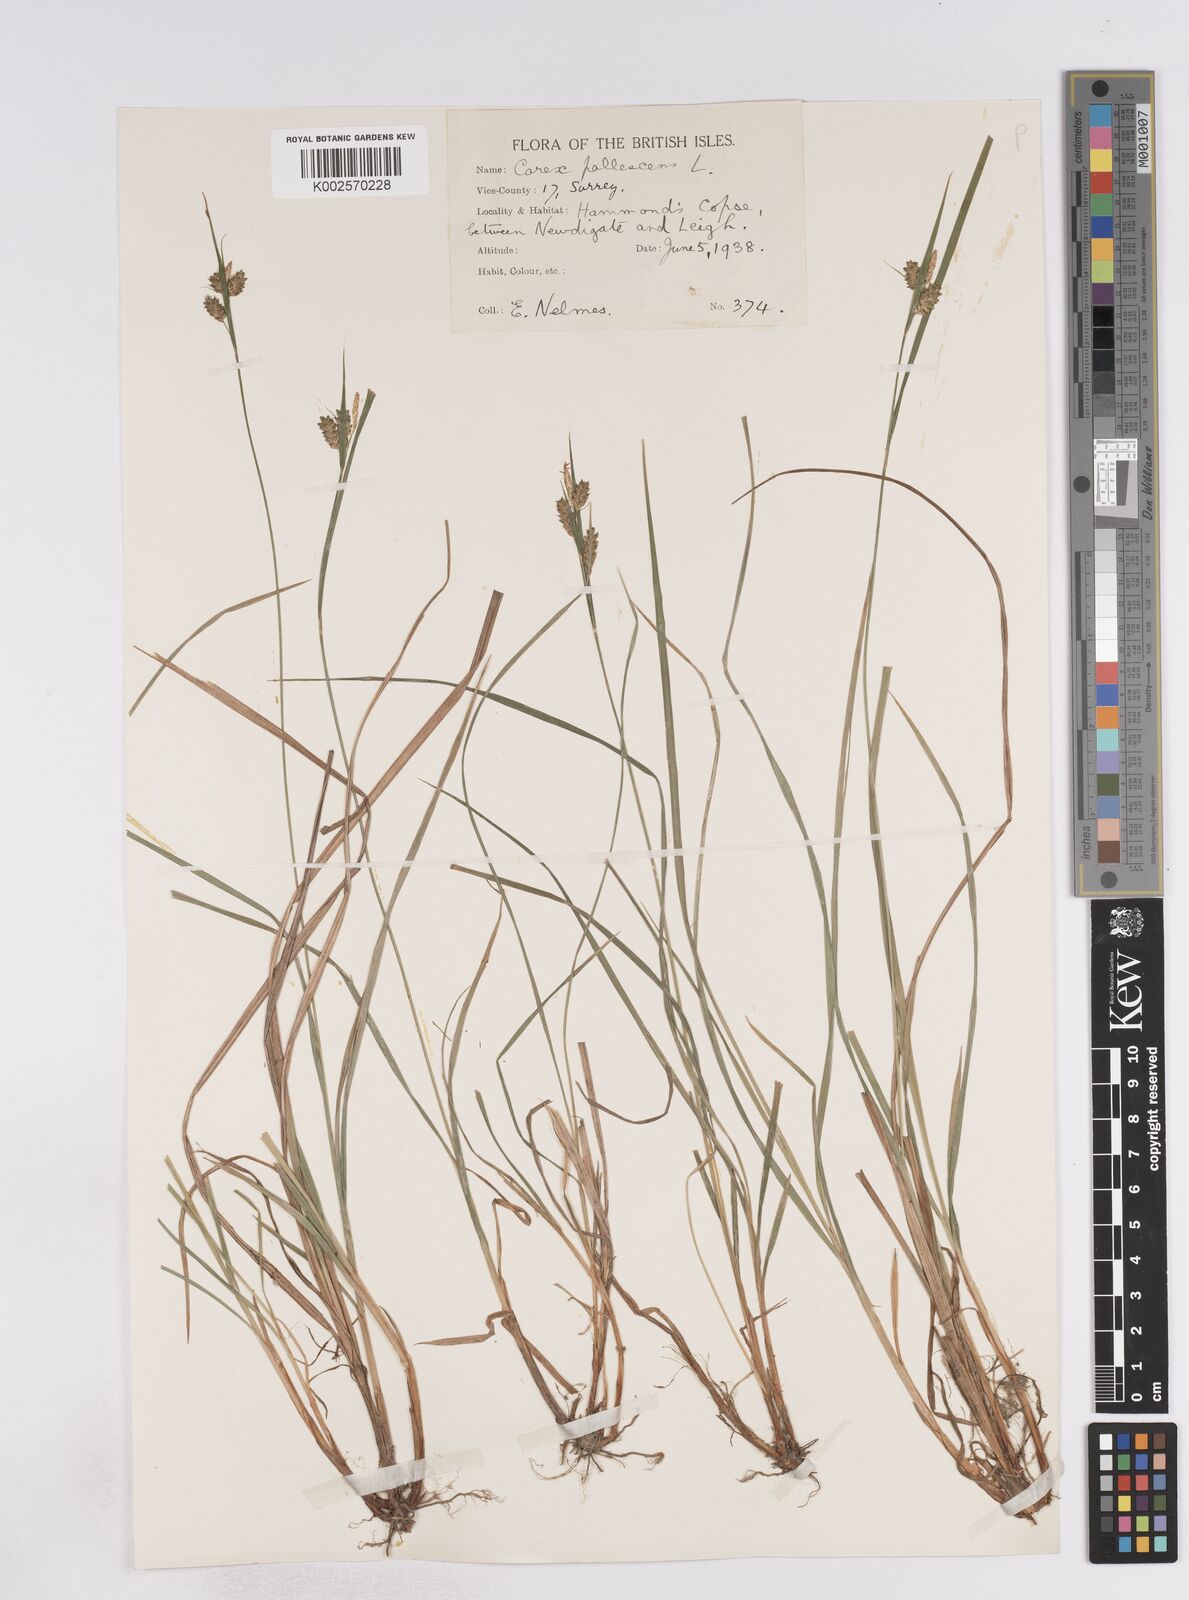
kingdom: Plantae
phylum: Tracheophyta
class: Liliopsida
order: Poales
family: Cyperaceae
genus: Carex
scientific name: Carex pallescens
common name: Pale sedge
